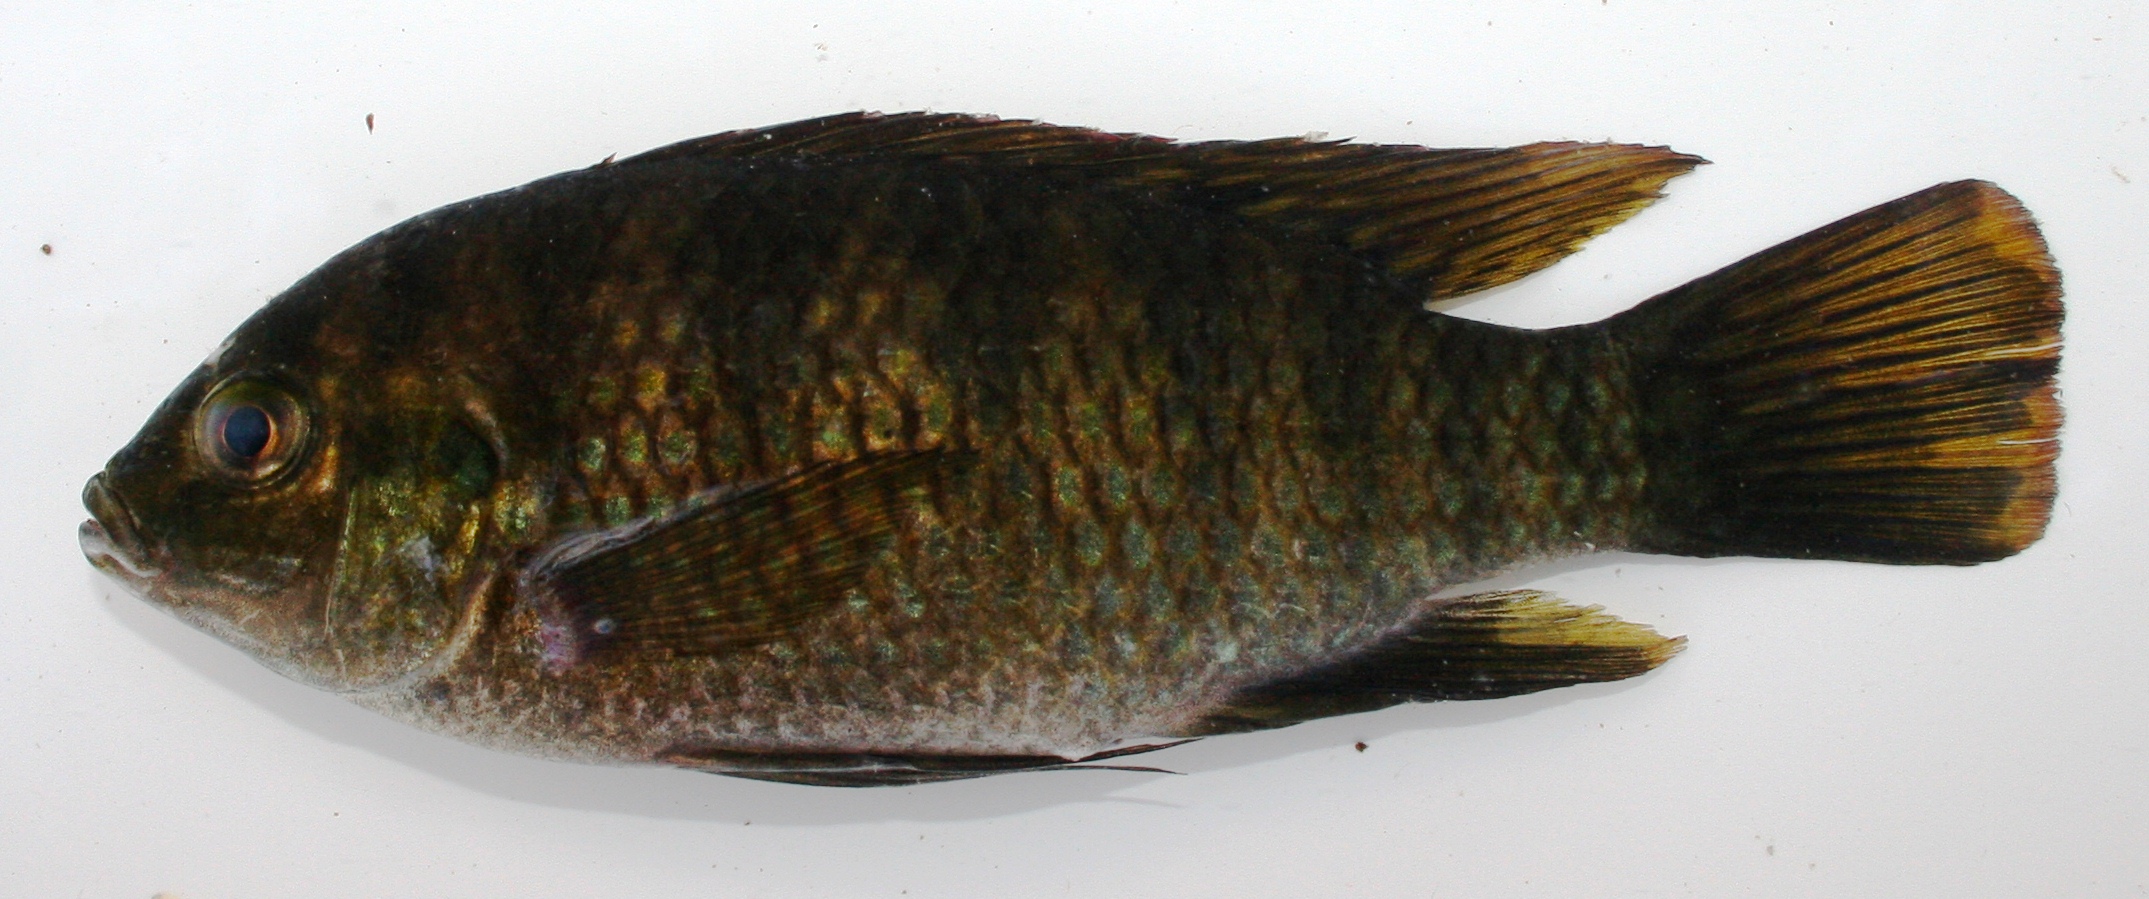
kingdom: Animalia
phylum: Chordata
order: Perciformes
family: Cichlidae
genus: Tilapia
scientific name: Tilapia sparrmanii
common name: Banded tilapia
